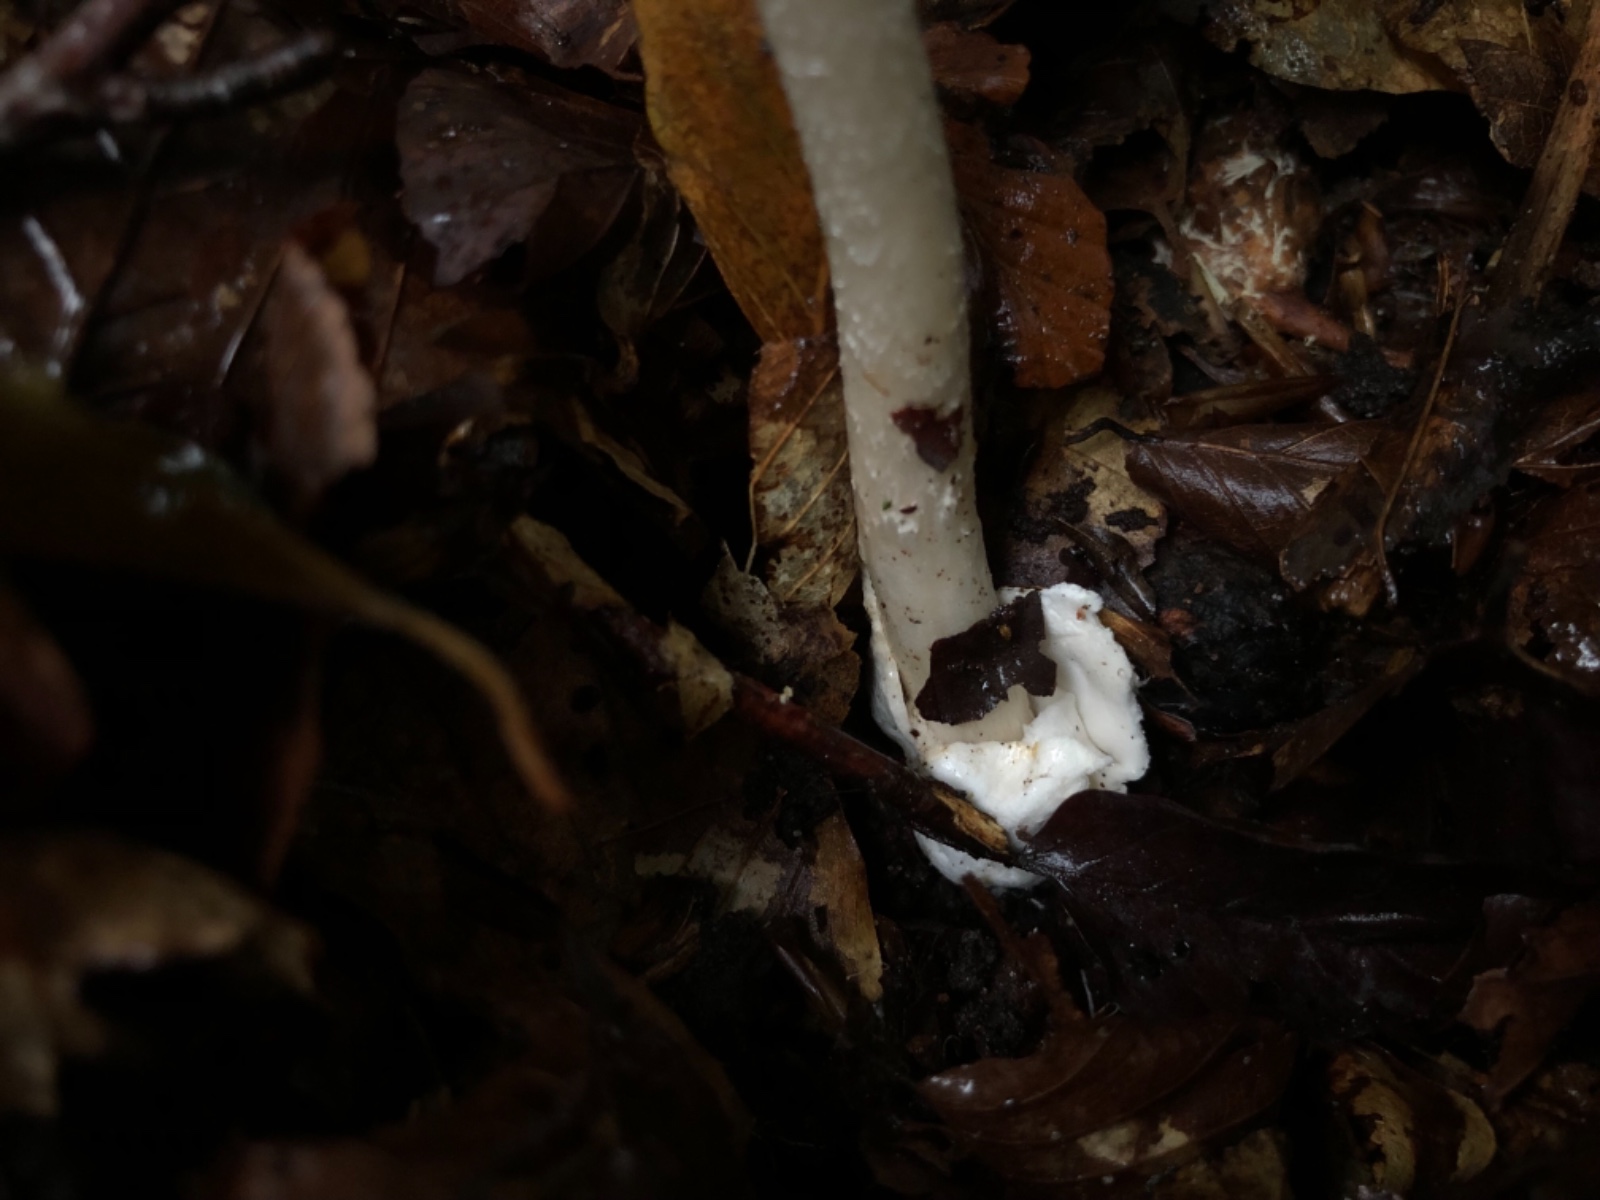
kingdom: Fungi
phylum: Basidiomycota
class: Agaricomycetes
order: Agaricales
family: Amanitaceae
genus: Amanita
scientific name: Amanita vaginata
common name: grå kam-fluesvamp
